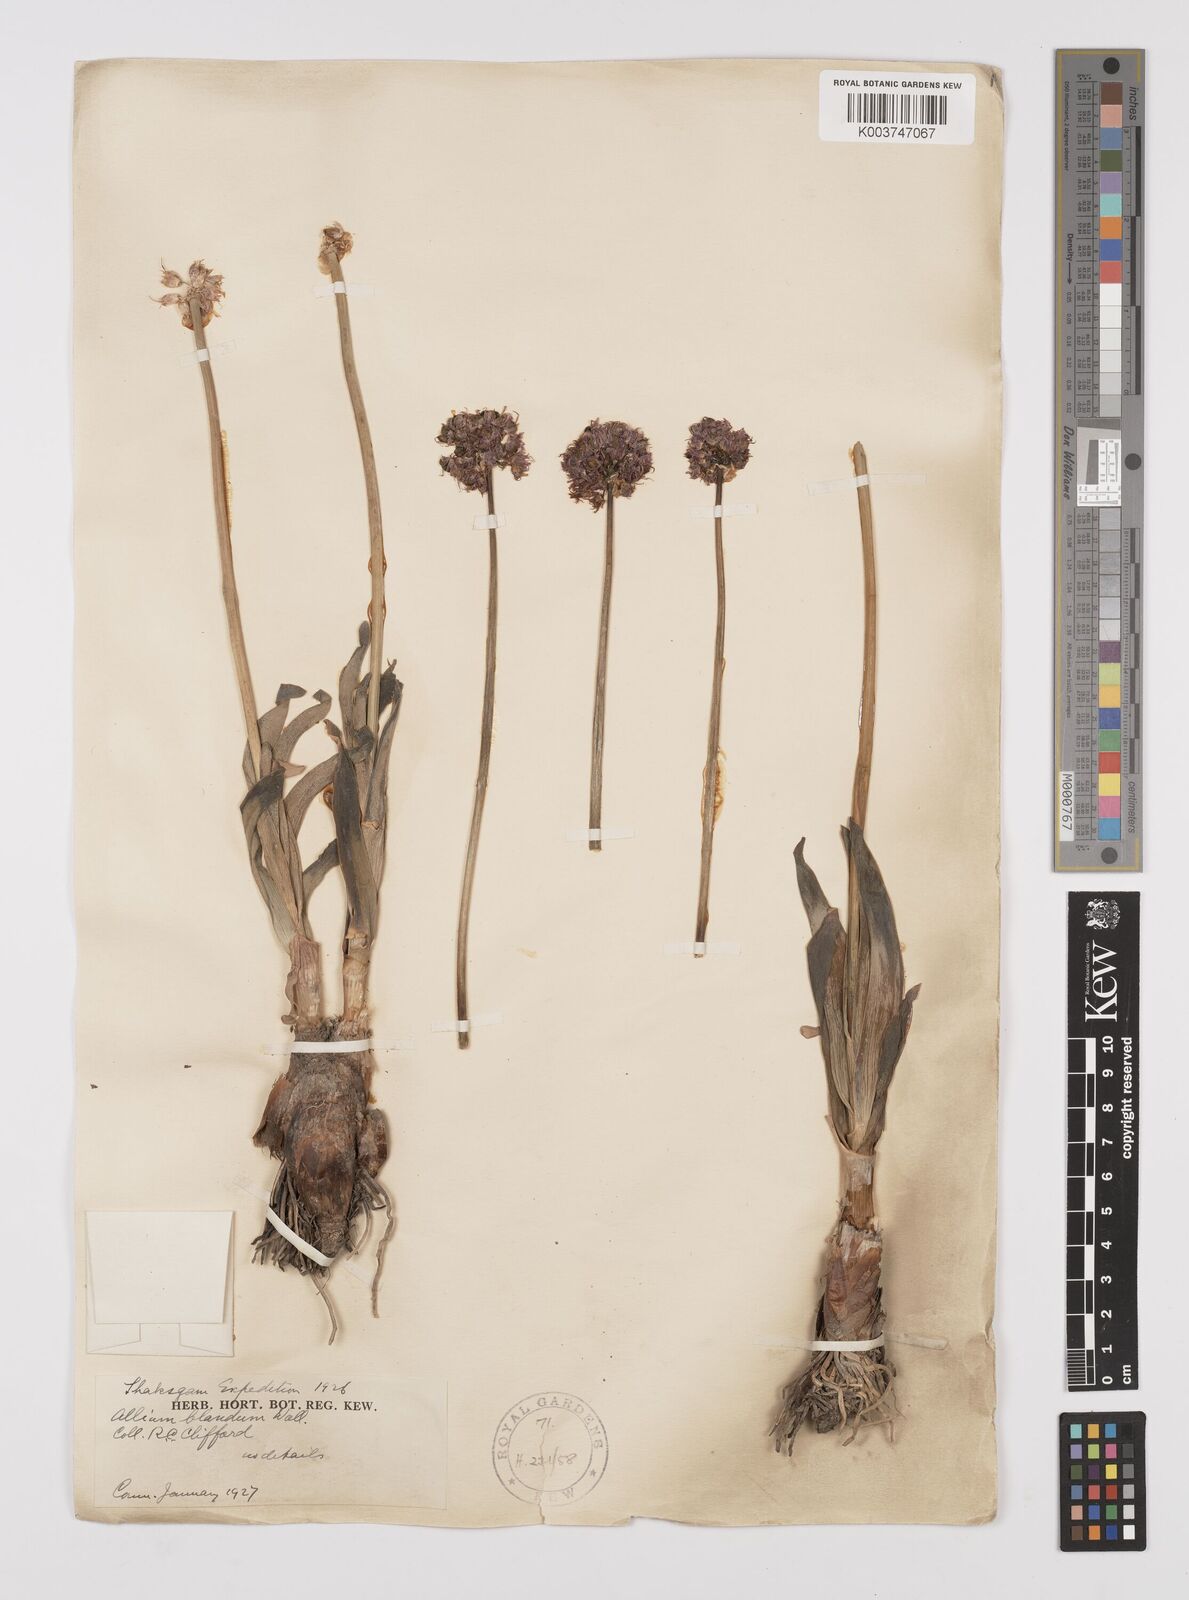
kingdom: Plantae
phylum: Tracheophyta
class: Liliopsida
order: Asparagales
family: Amaryllidaceae
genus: Allium
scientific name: Allium carolinianum
